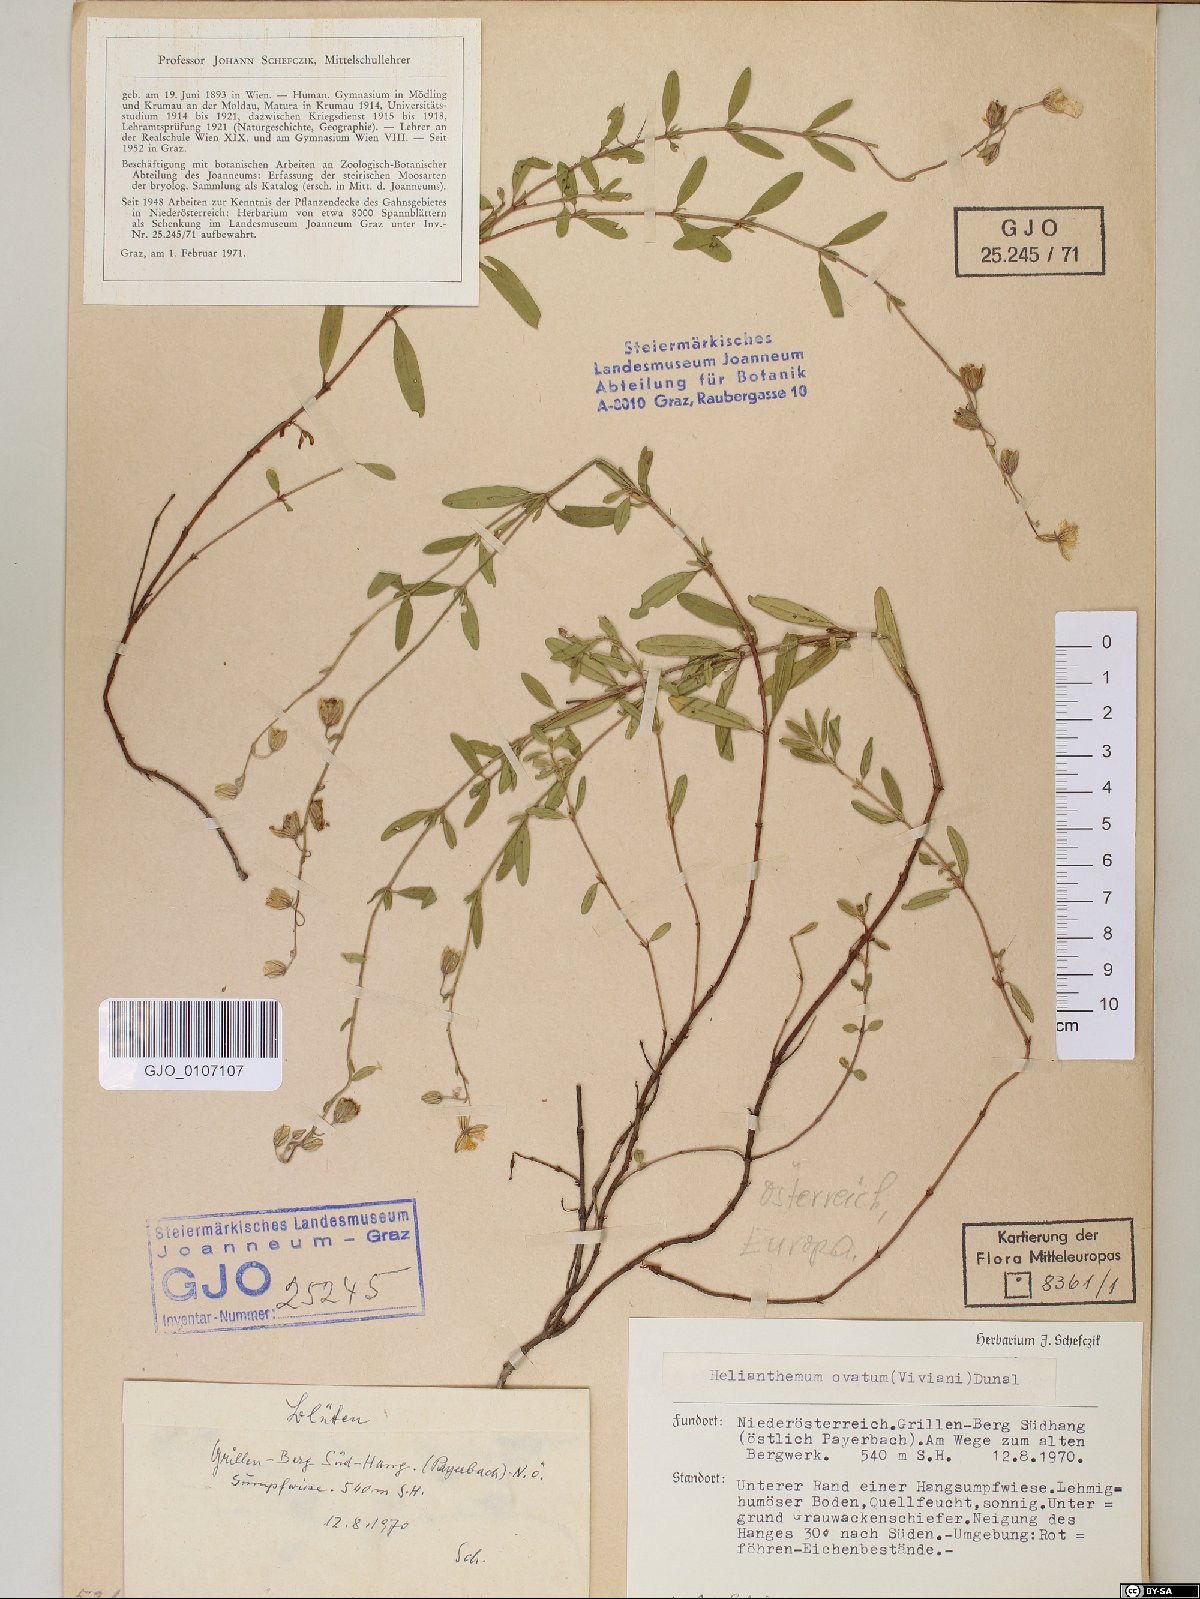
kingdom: Plantae
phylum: Tracheophyta
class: Magnoliopsida
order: Malvales
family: Cistaceae
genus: Helianthemum
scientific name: Helianthemum nummularium
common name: Common rock-rose
